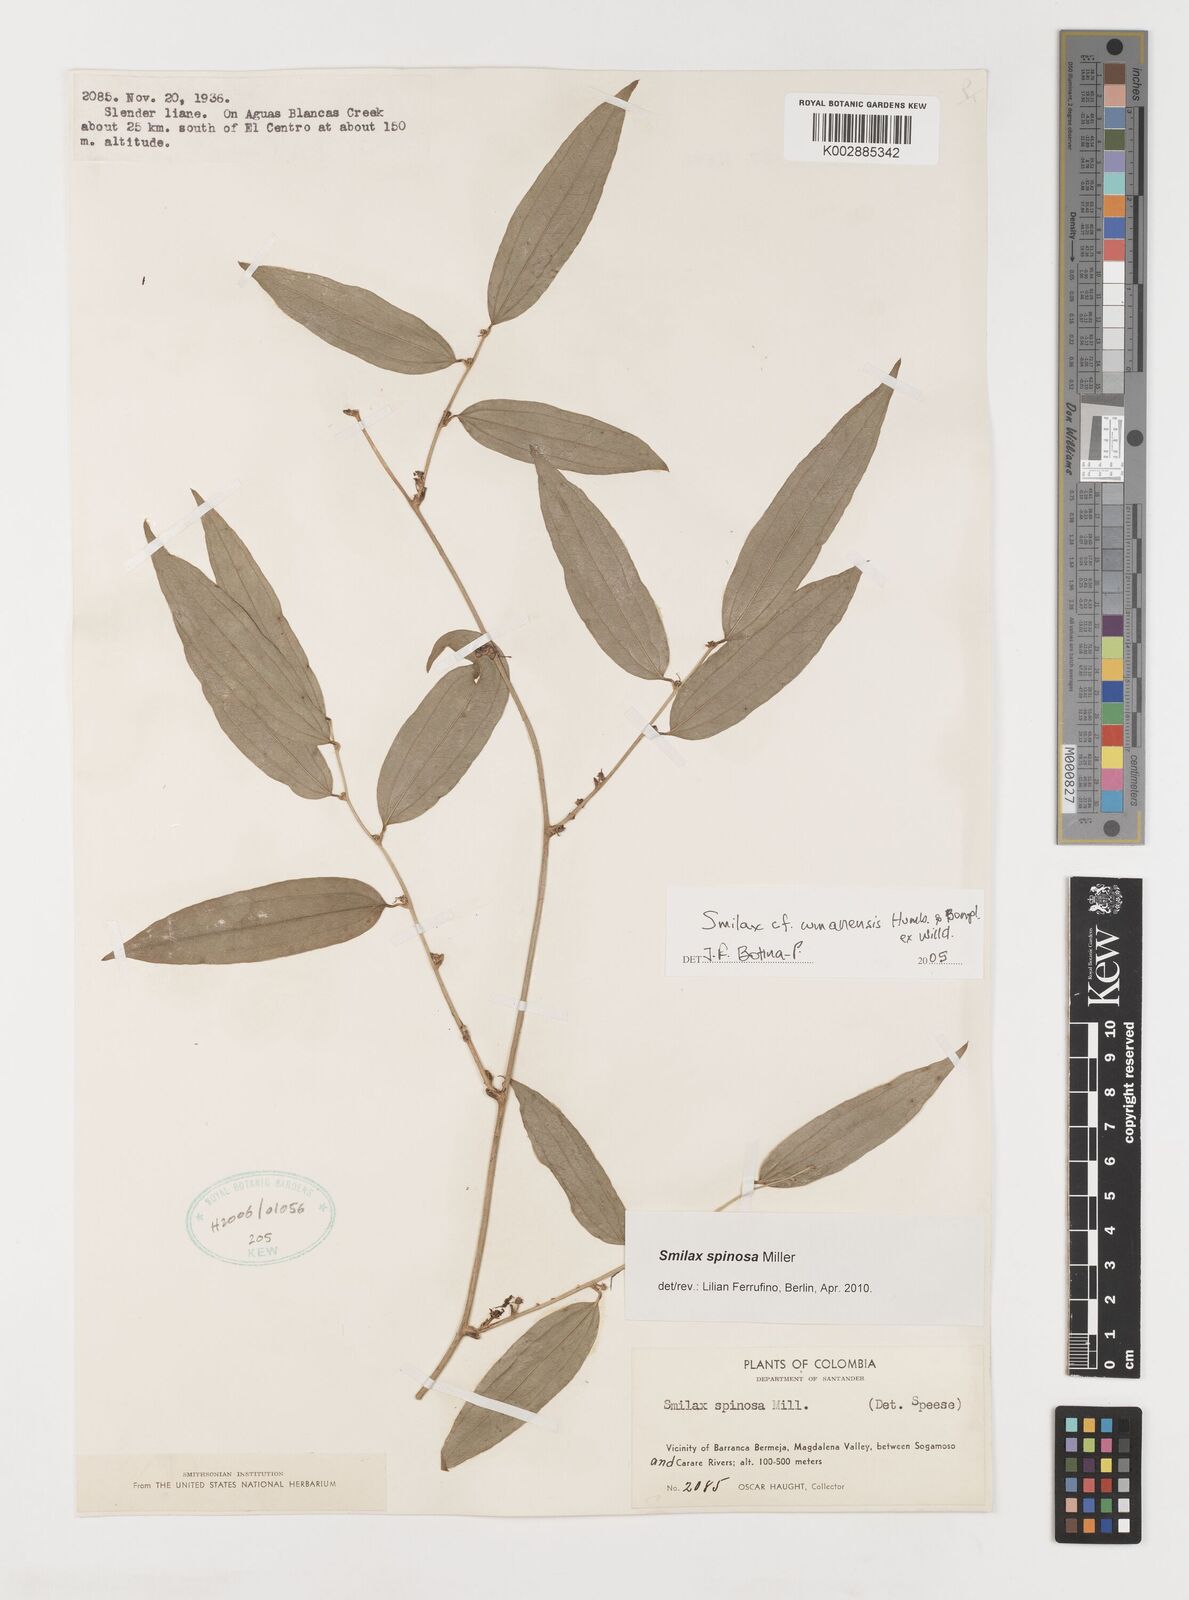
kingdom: Plantae
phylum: Tracheophyta
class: Liliopsida
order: Liliales
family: Smilacaceae
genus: Smilax
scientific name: Smilax spinosa
